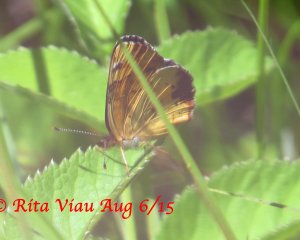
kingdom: Animalia
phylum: Arthropoda
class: Insecta
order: Lepidoptera
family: Nymphalidae
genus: Phyciodes
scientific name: Phyciodes tharos
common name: Northern Crescent
